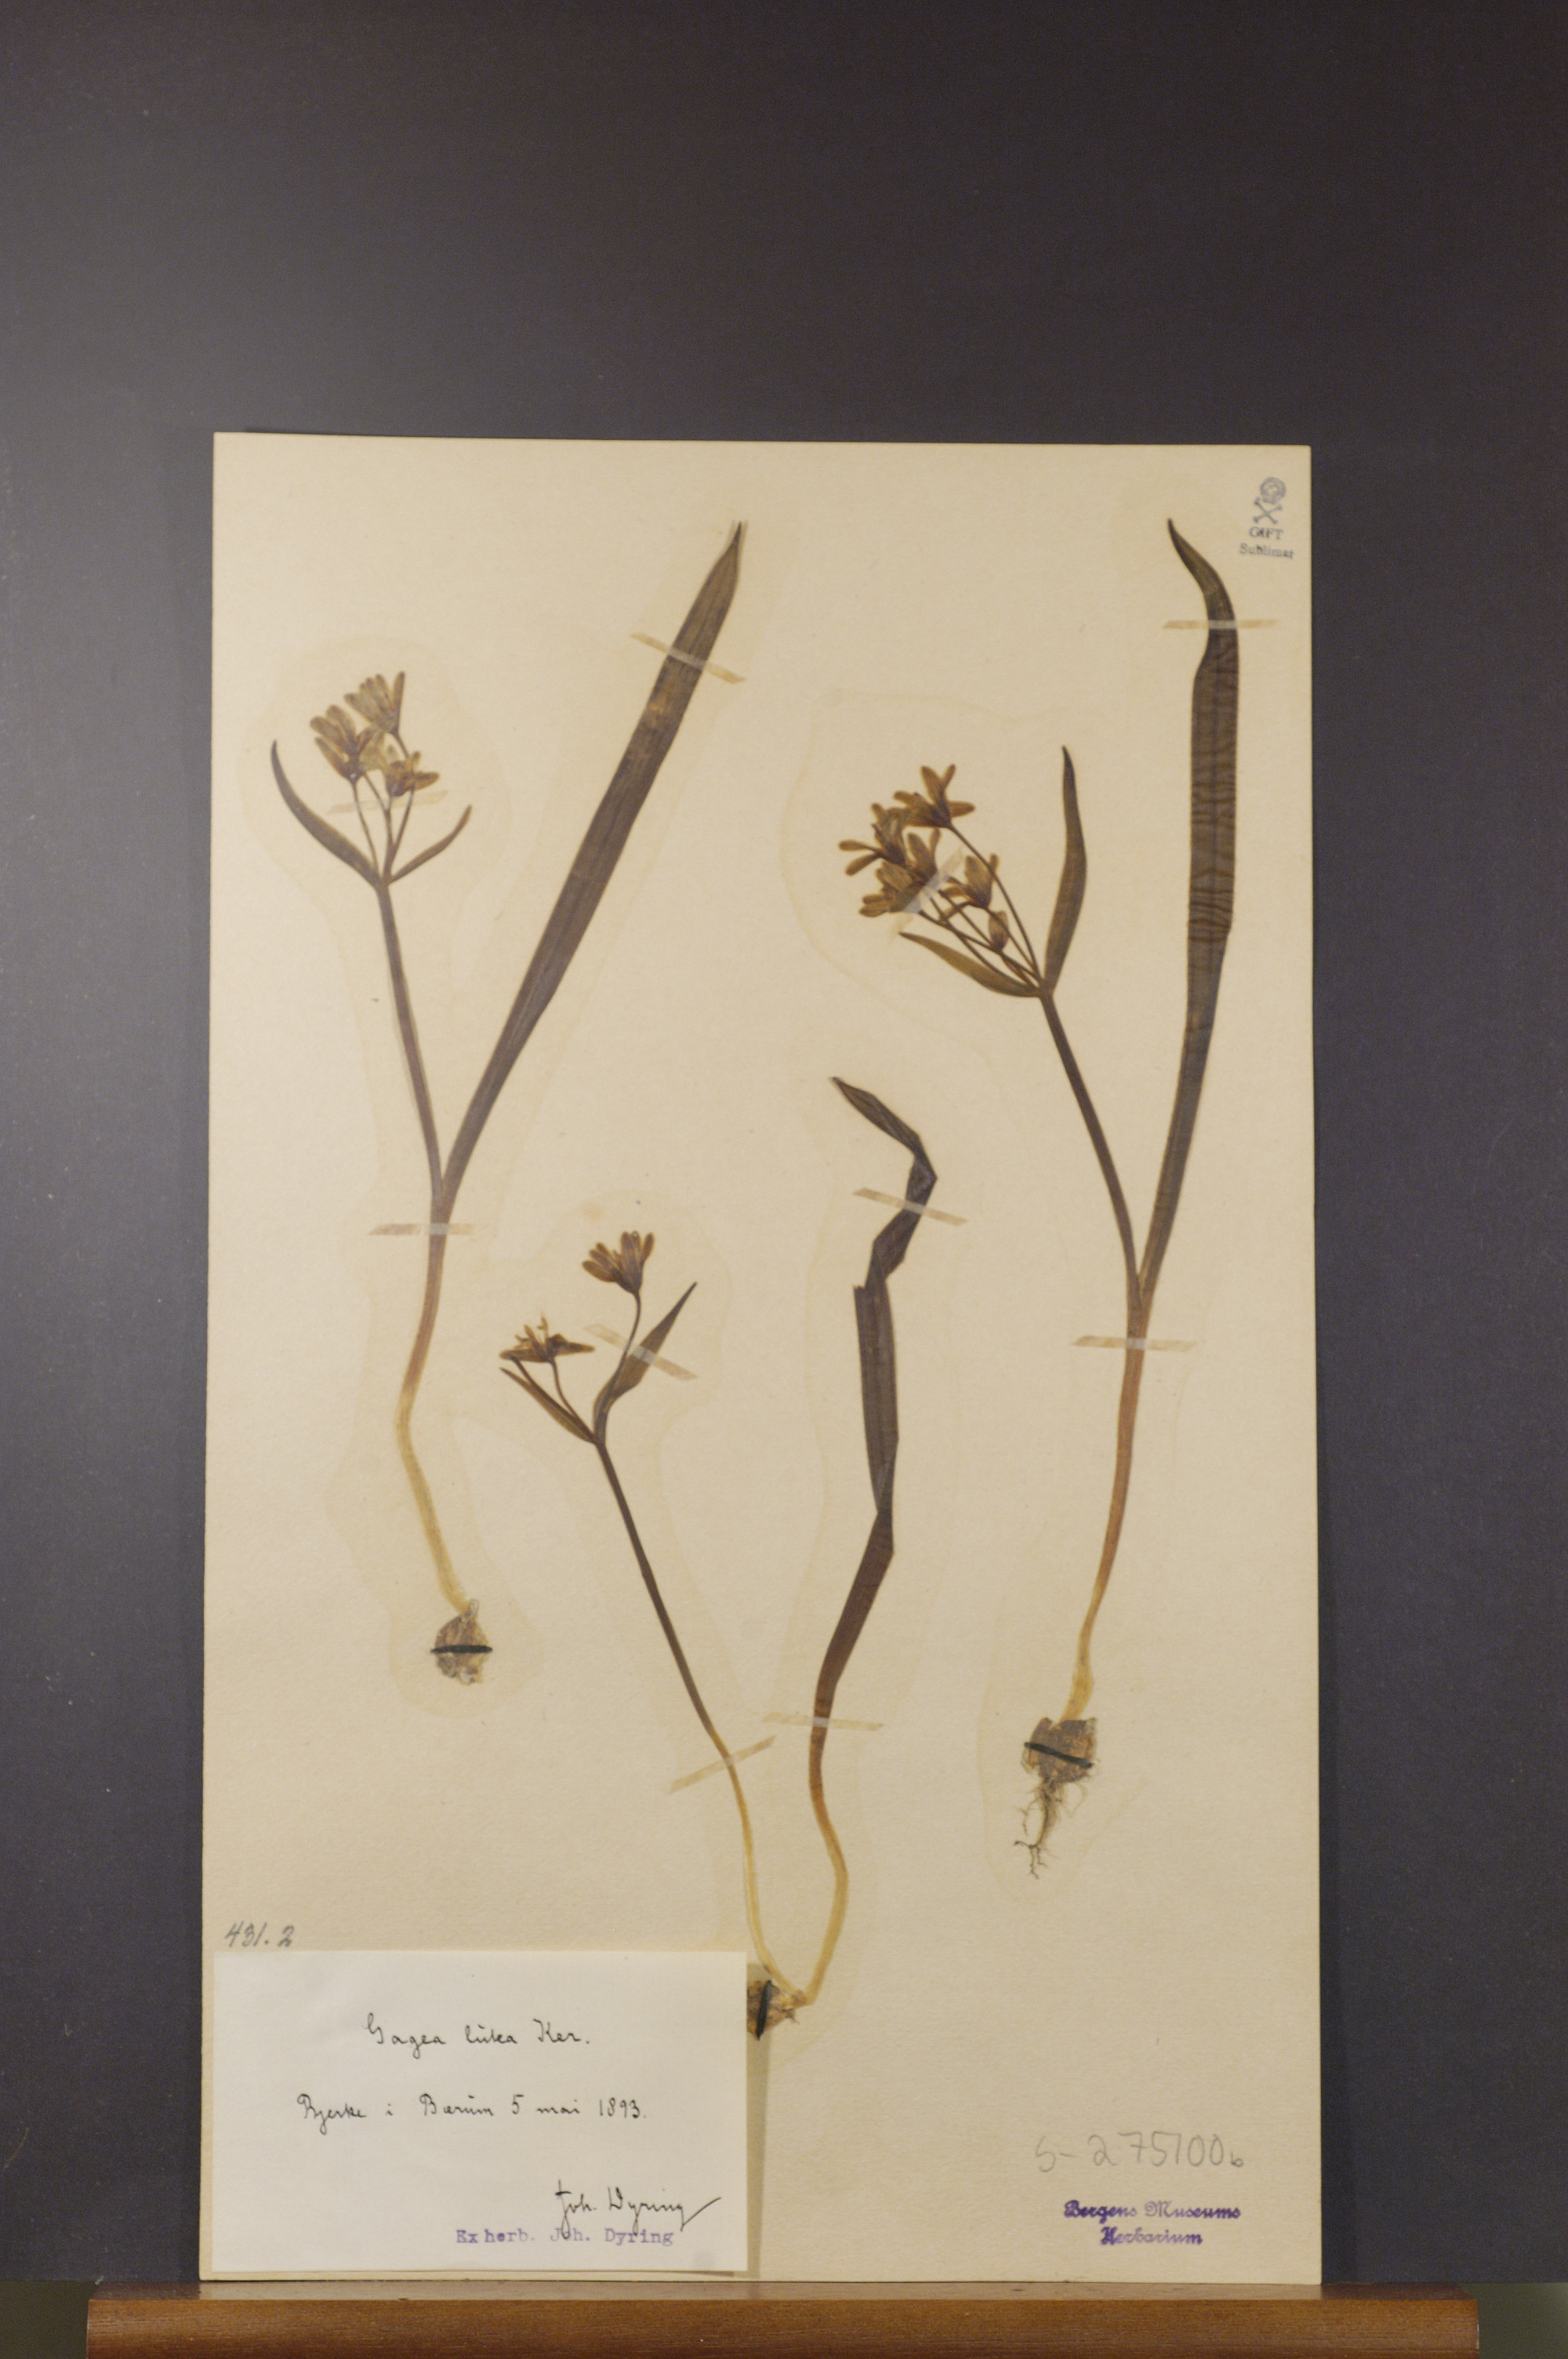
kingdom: Plantae
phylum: Tracheophyta
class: Liliopsida
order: Liliales
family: Liliaceae
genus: Gagea
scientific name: Gagea lutea
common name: Yellow star-of-bethlehem
